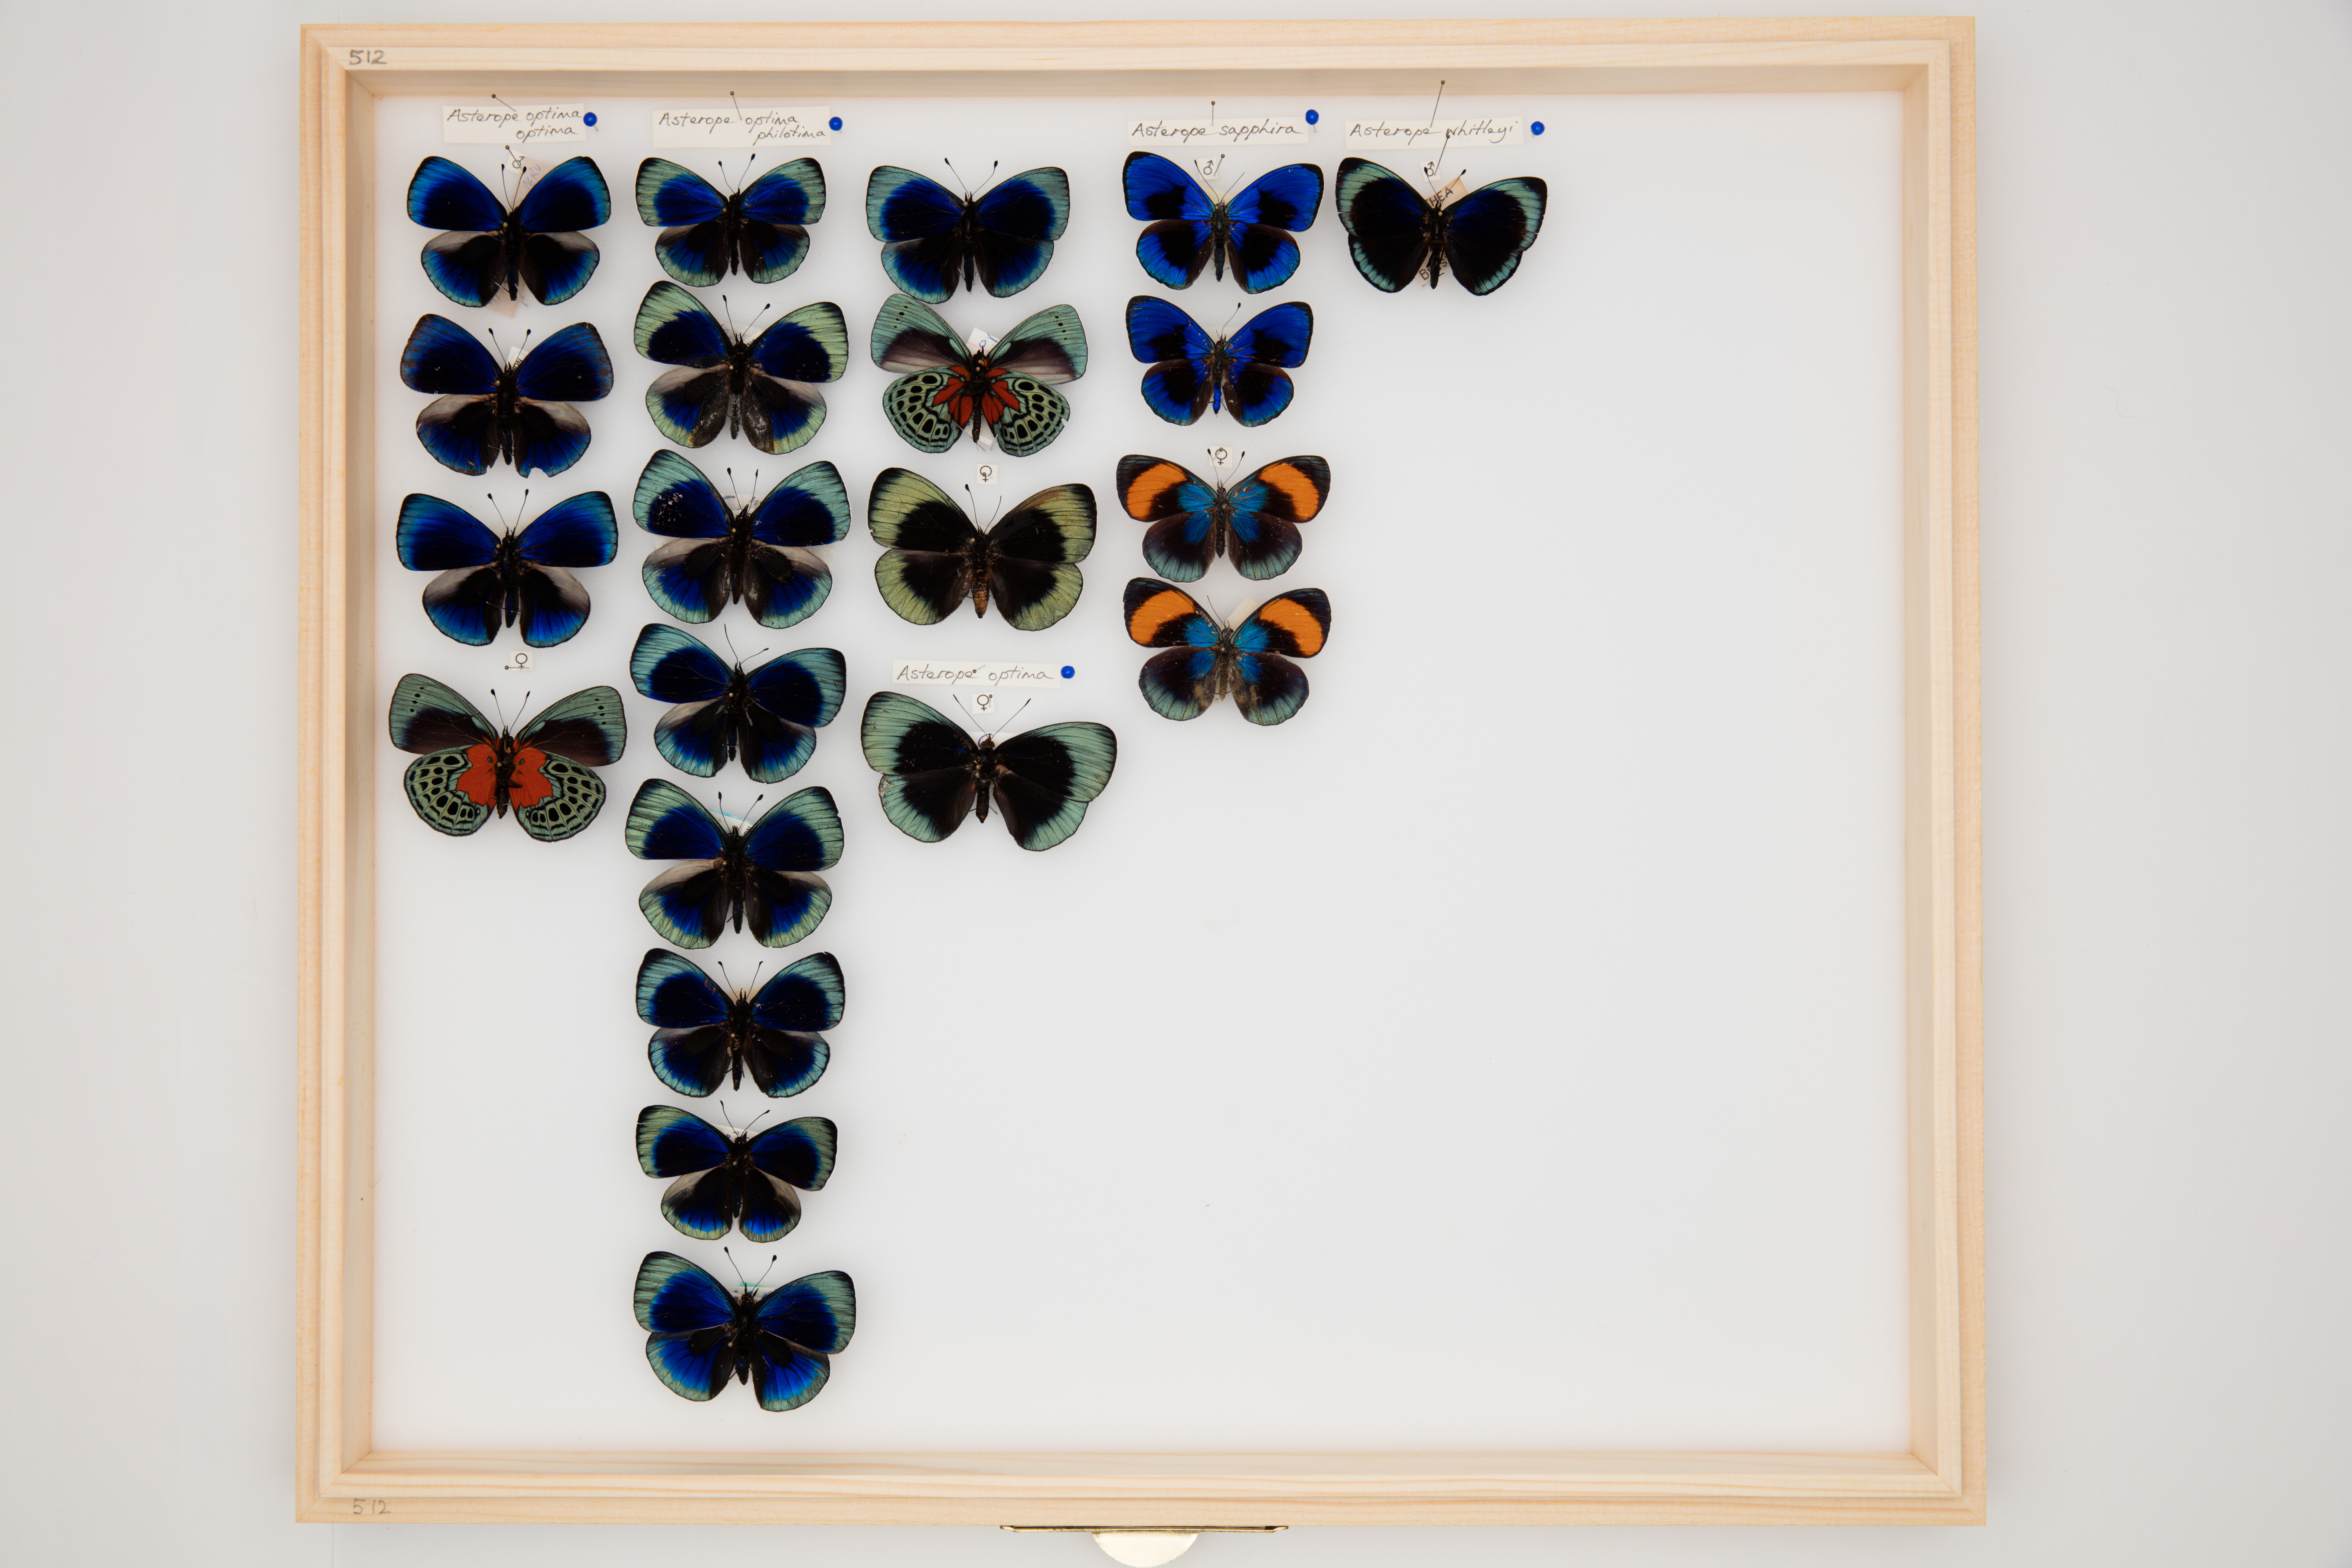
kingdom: Animalia
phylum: Arthropoda
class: Insecta
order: Lepidoptera
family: Nymphalidae
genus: Asterope
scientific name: Asterope
